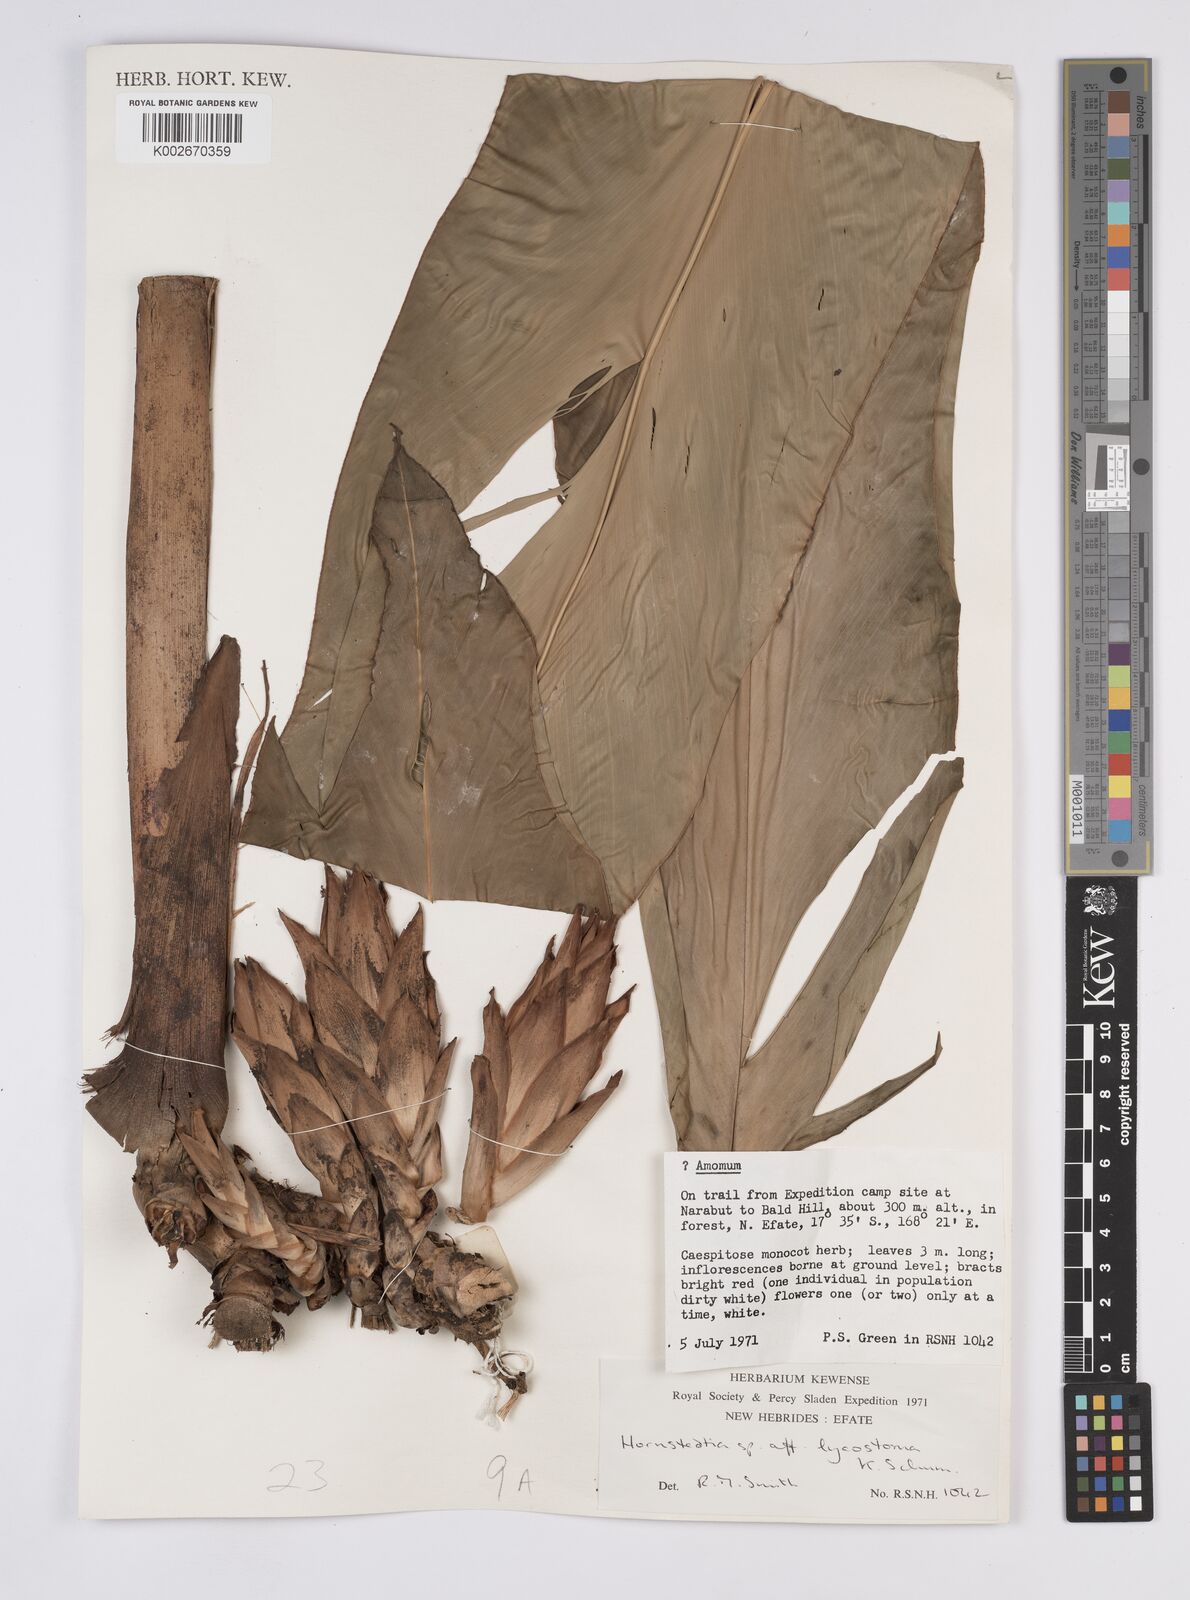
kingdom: Plantae
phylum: Tracheophyta
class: Liliopsida
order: Zingiberales
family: Zingiberaceae
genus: Hornstedtia
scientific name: Hornstedtia scottiana
